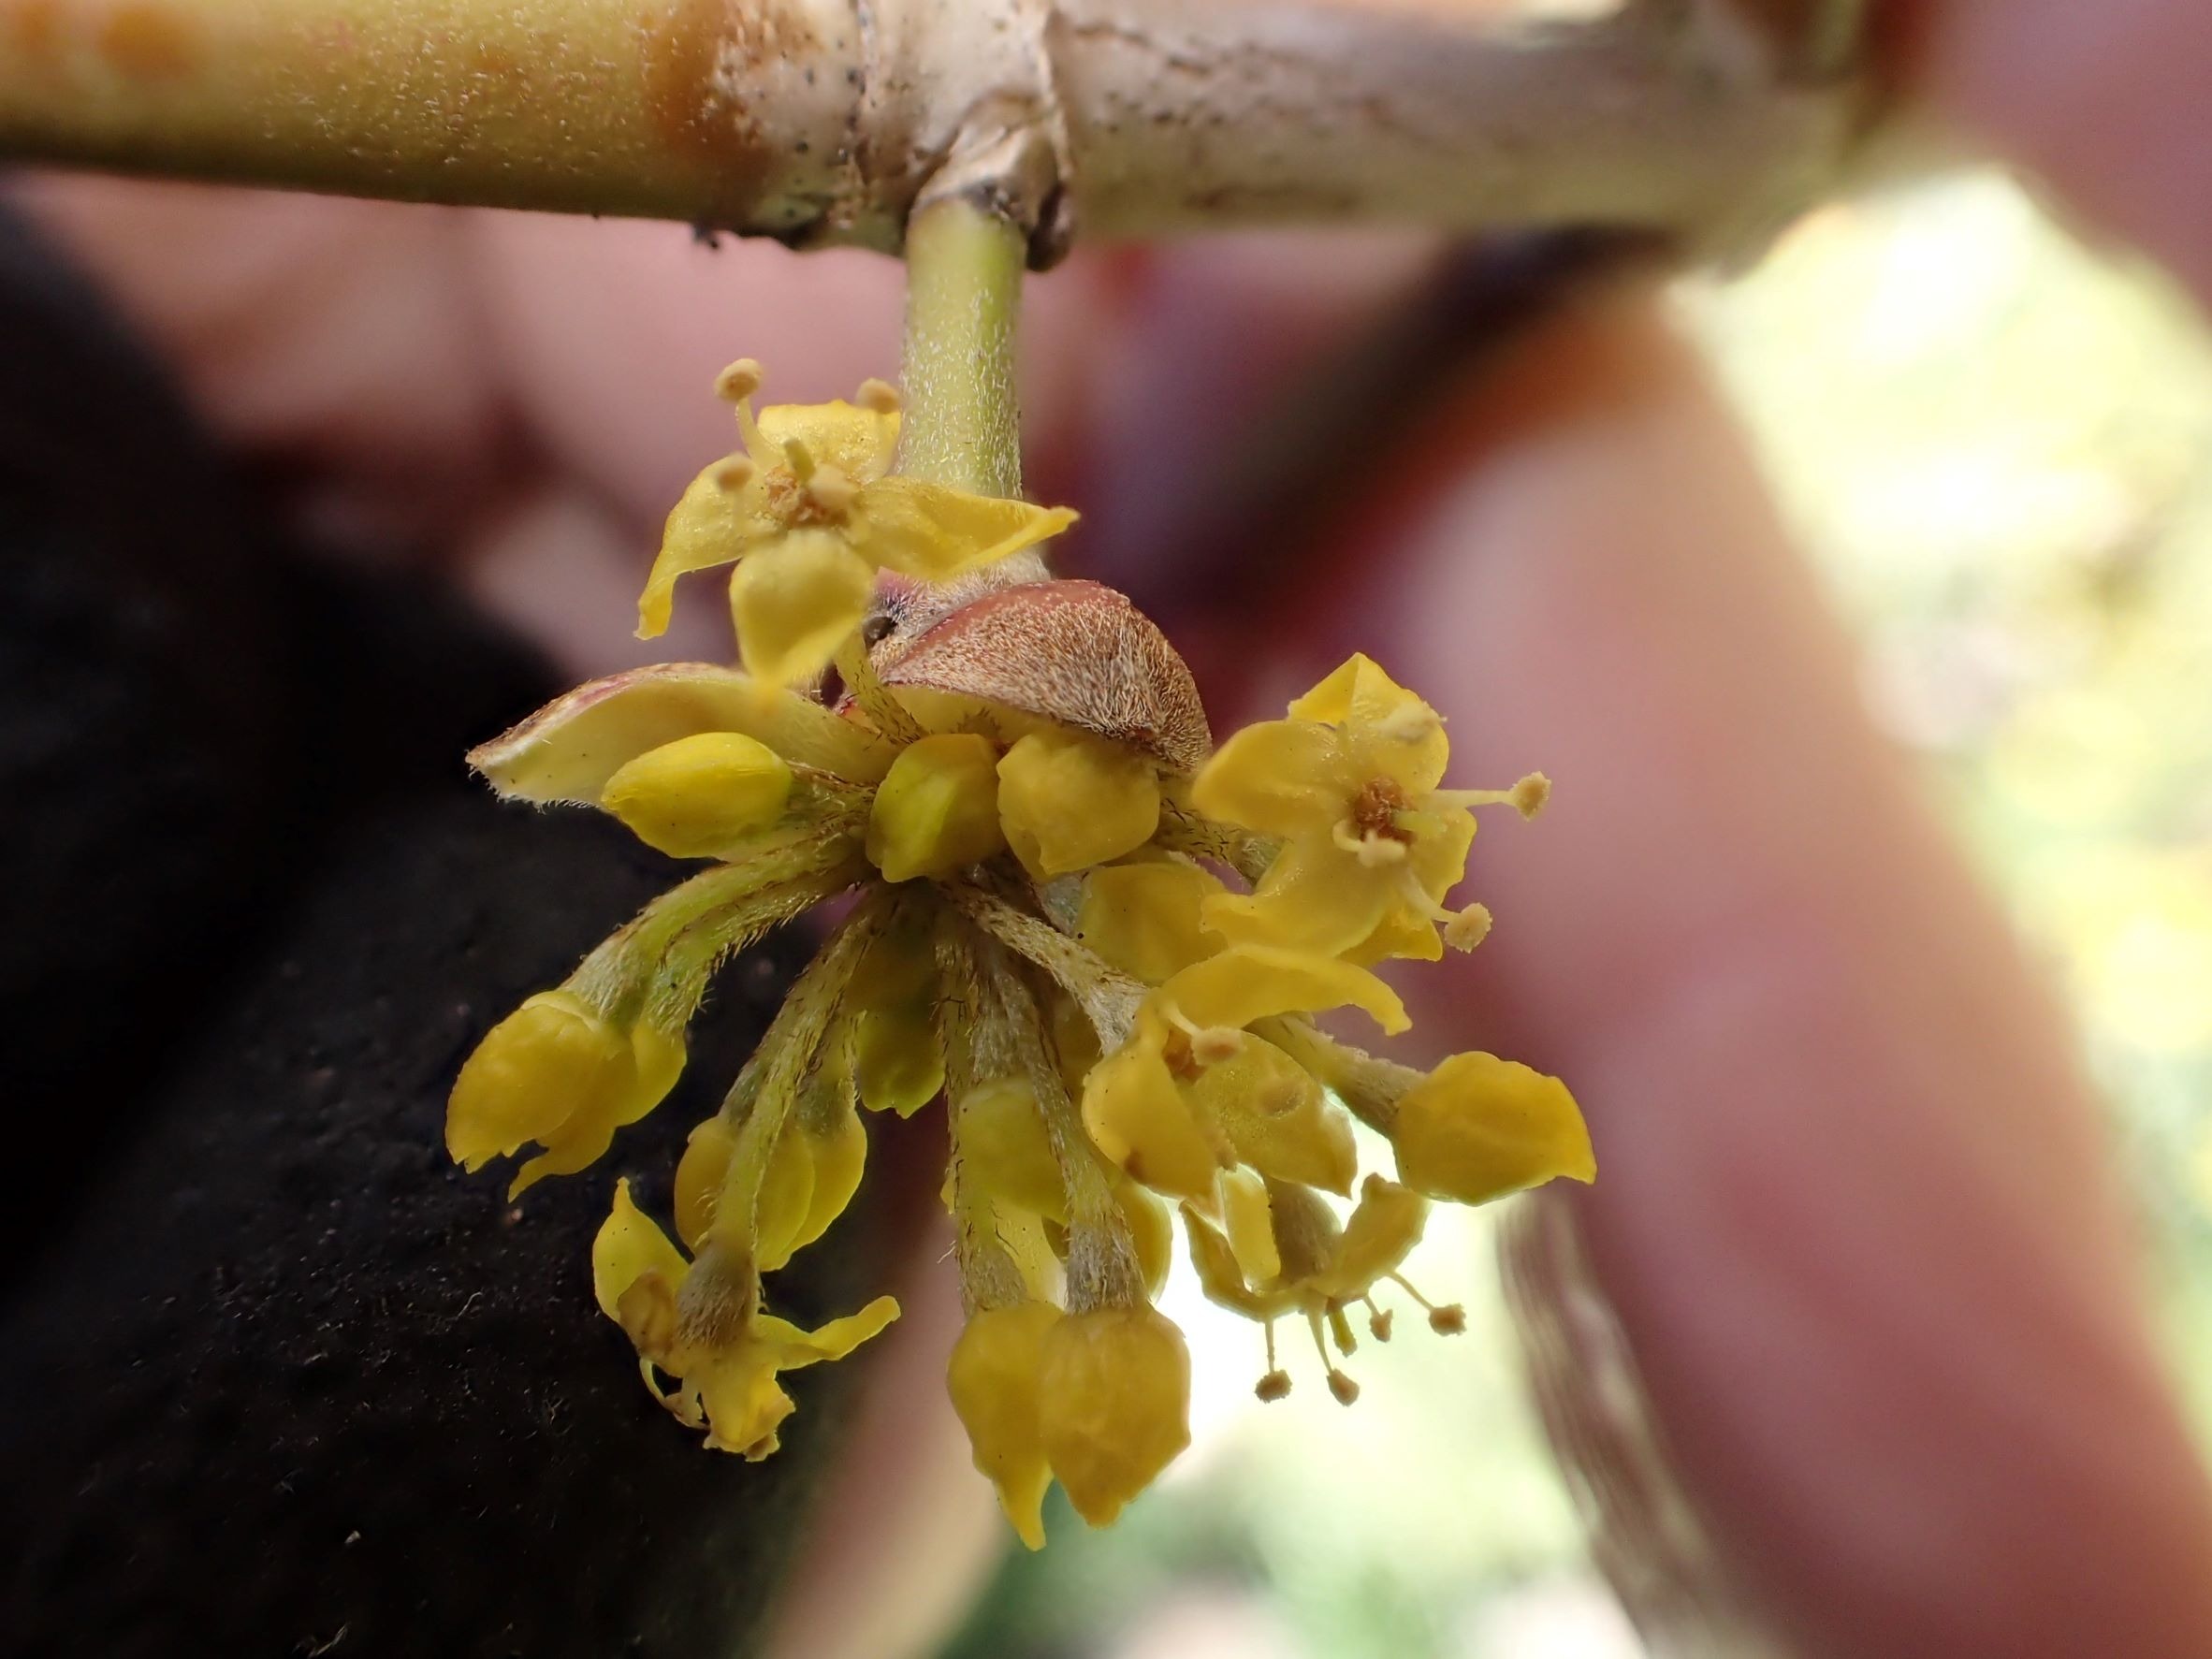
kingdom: Plantae
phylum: Tracheophyta
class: Magnoliopsida
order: Cornales
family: Cornaceae
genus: Cornus
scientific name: Cornus mas
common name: Kirsebær-kornel
